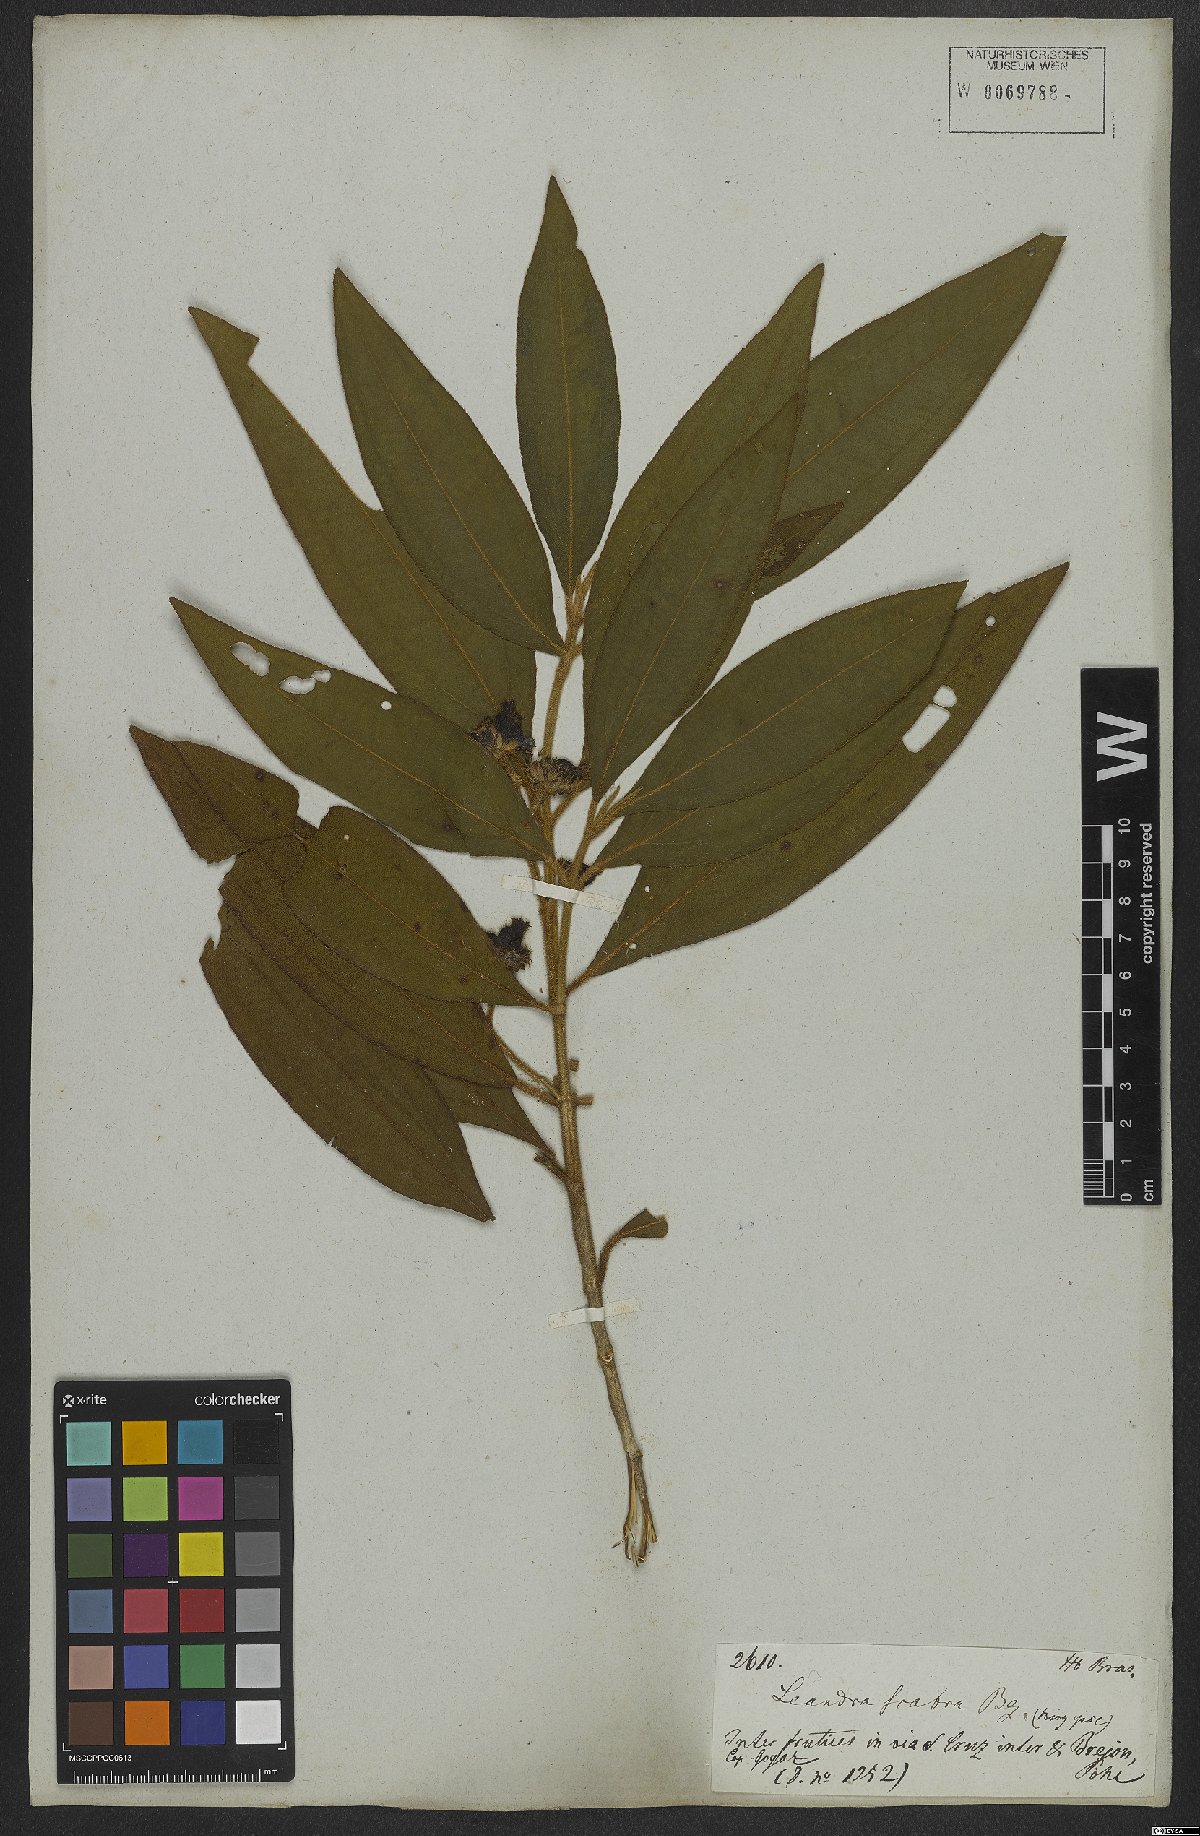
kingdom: Plantae
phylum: Tracheophyta
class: Magnoliopsida
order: Myrtales
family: Melastomataceae
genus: Miconia
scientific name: Miconia melastomoides
